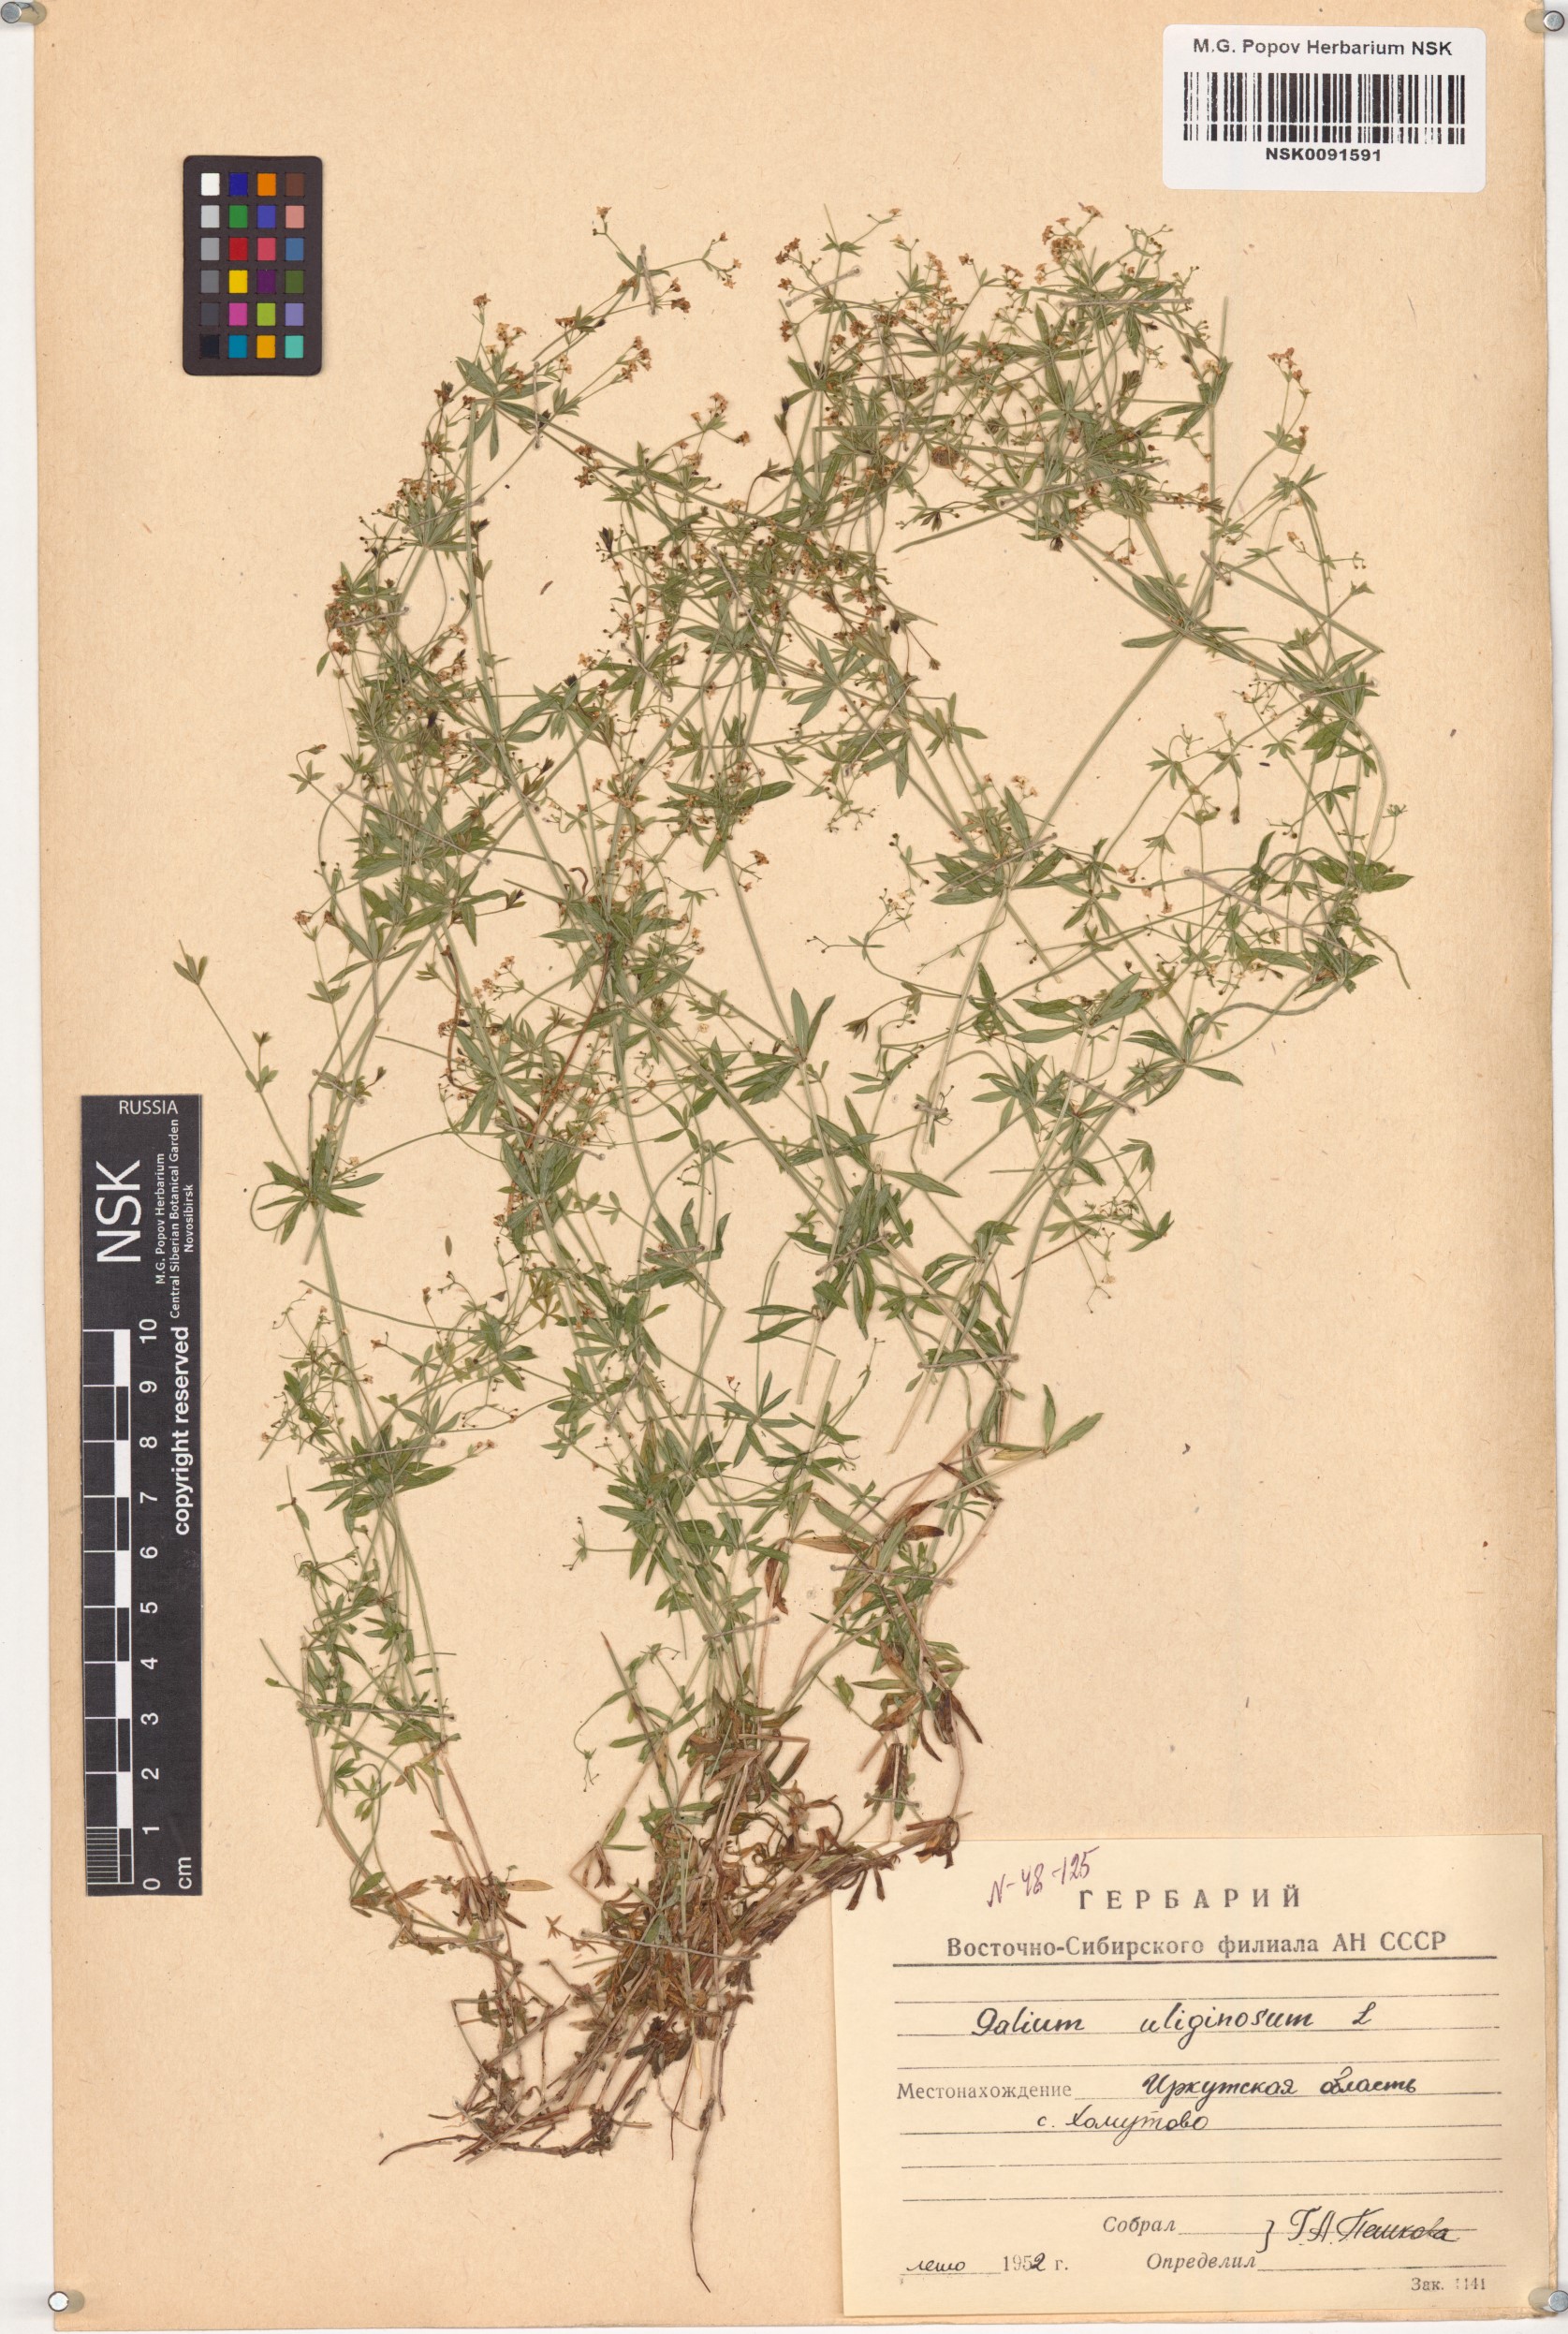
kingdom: Plantae
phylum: Tracheophyta
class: Magnoliopsida
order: Gentianales
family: Rubiaceae
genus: Galium
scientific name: Galium uliginosum
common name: Fen bedstraw
